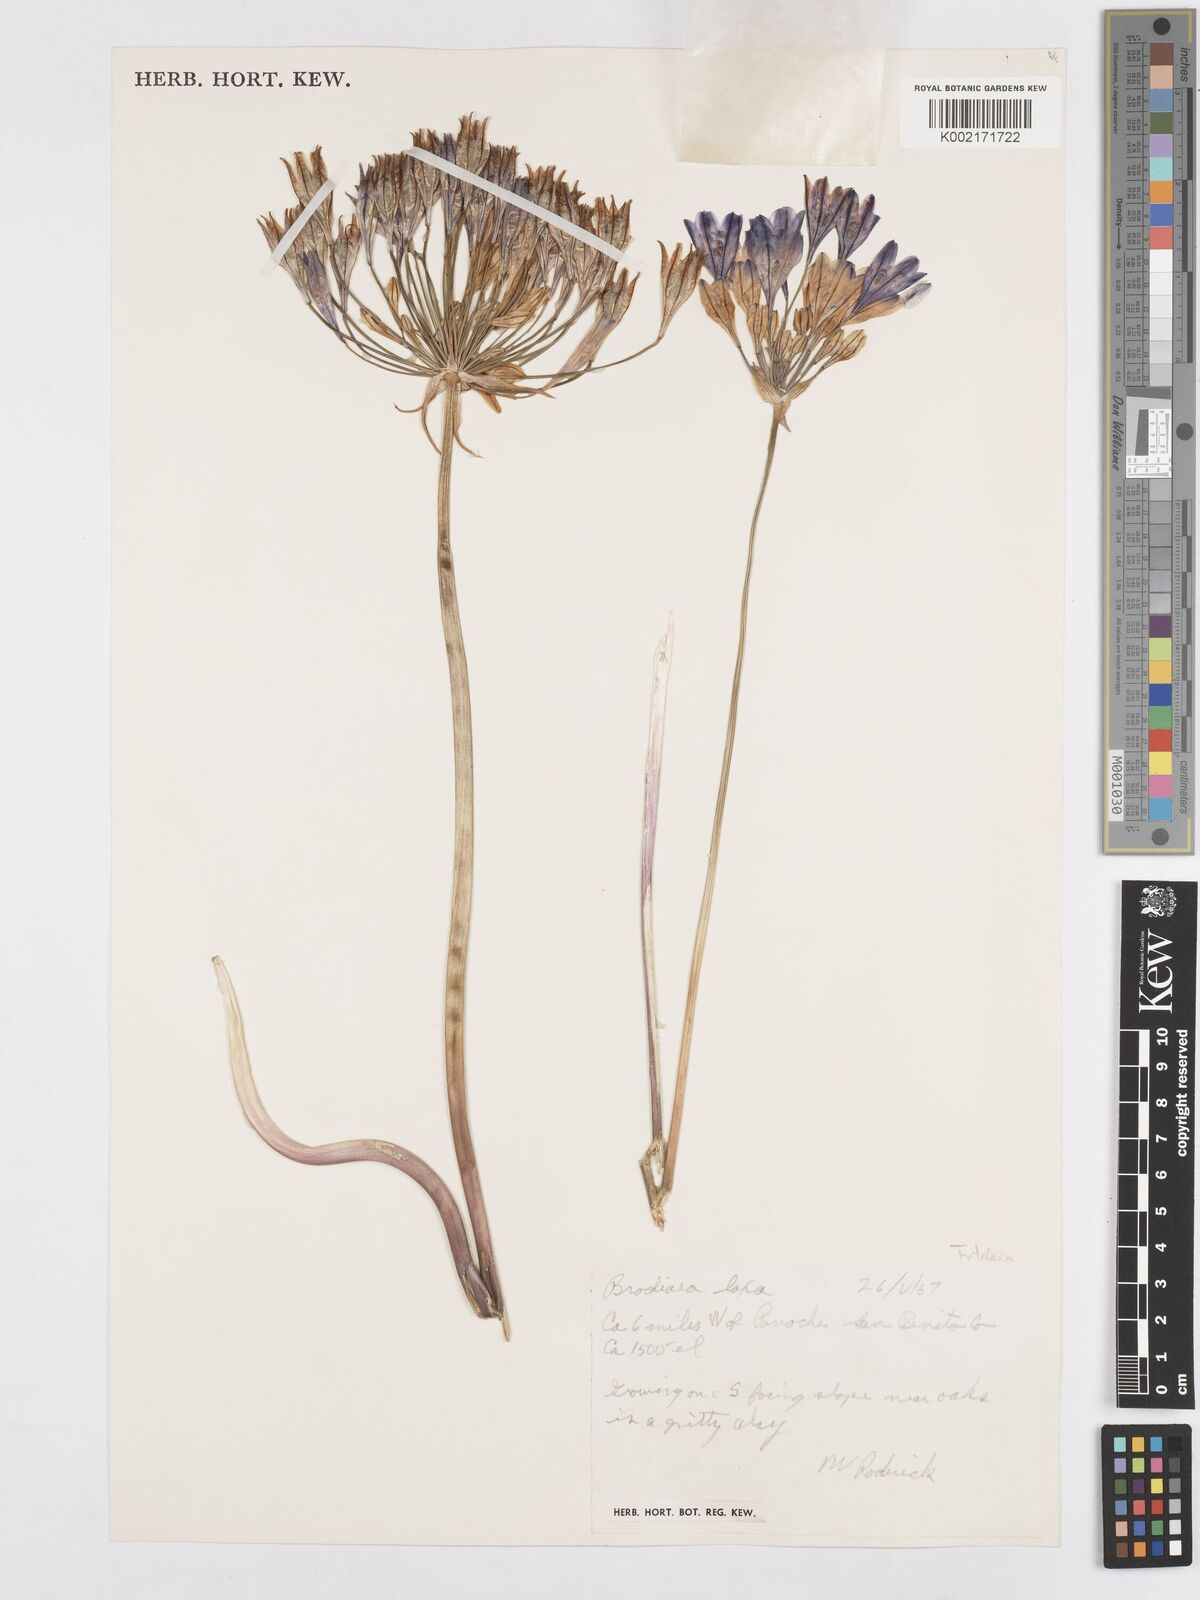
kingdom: Plantae
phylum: Tracheophyta
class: Liliopsida
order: Asparagales
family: Asparagaceae
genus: Triteleia
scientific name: Triteleia laxa
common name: Triplet-lily
